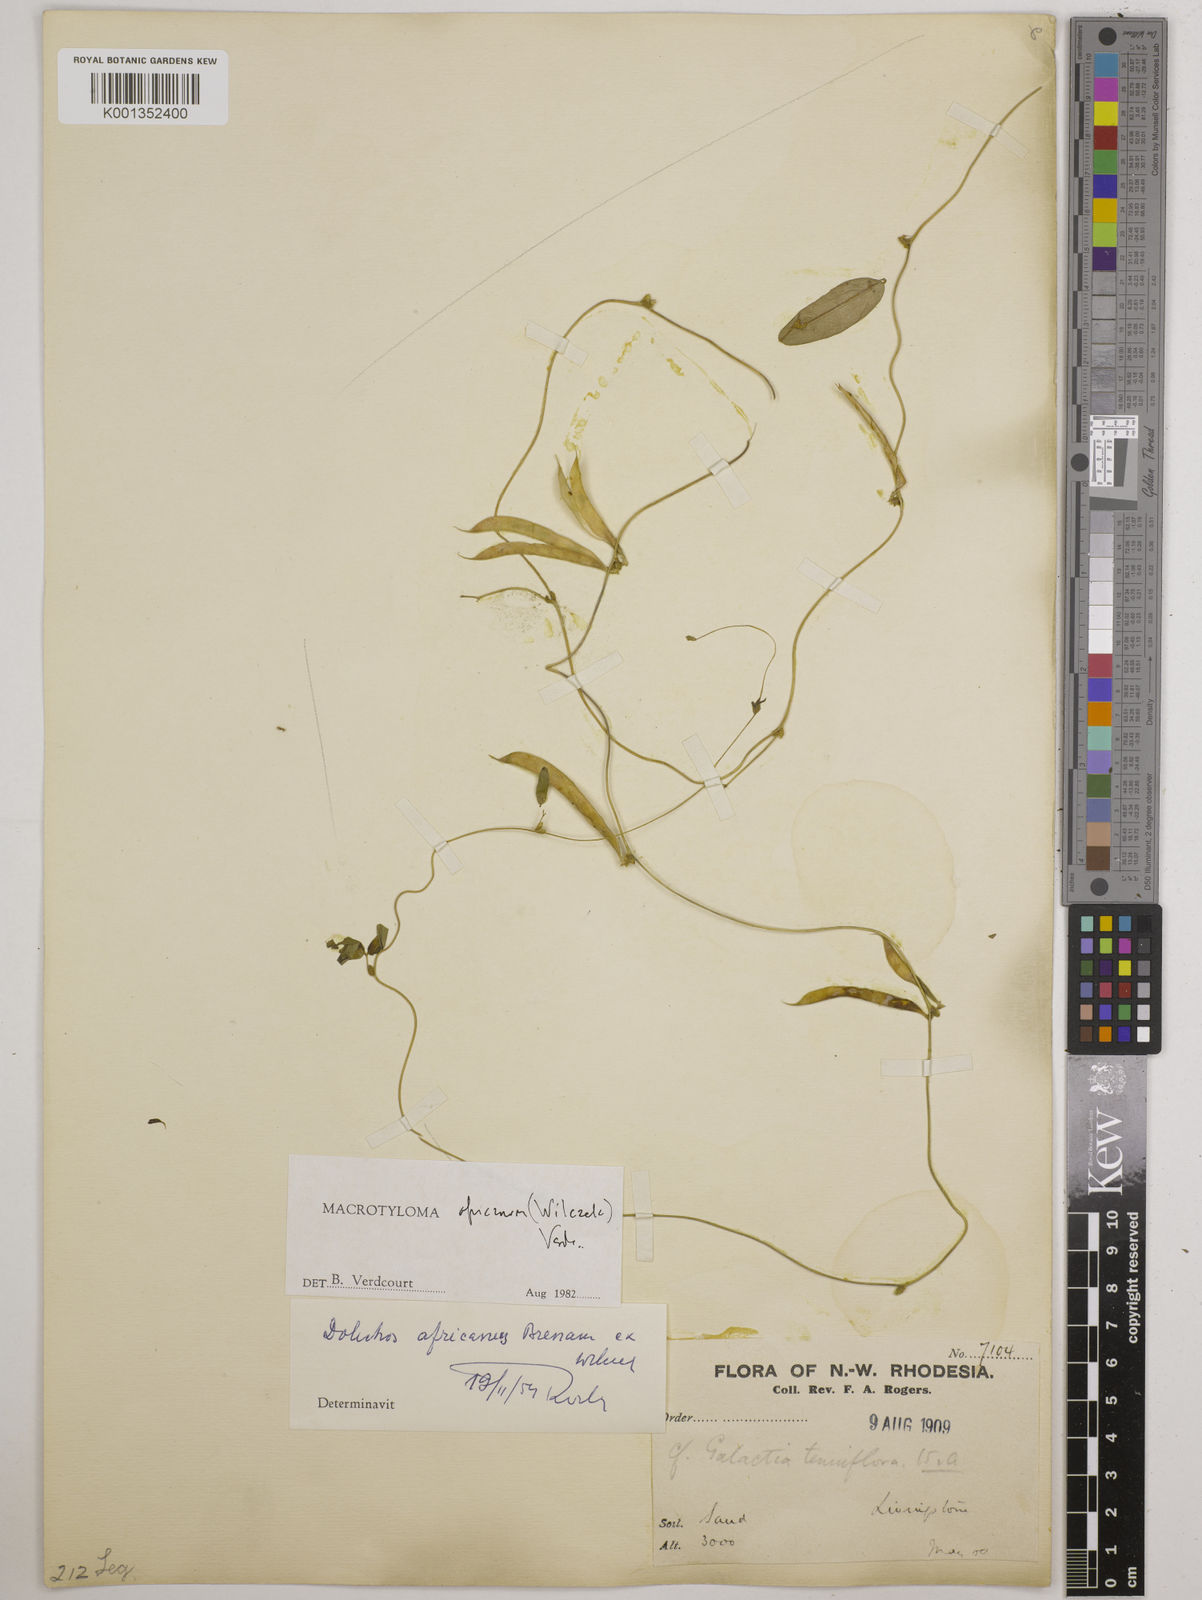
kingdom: Plantae
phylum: Tracheophyta
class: Magnoliopsida
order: Fabales
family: Fabaceae
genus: Macrotyloma
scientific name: Macrotyloma africanum
